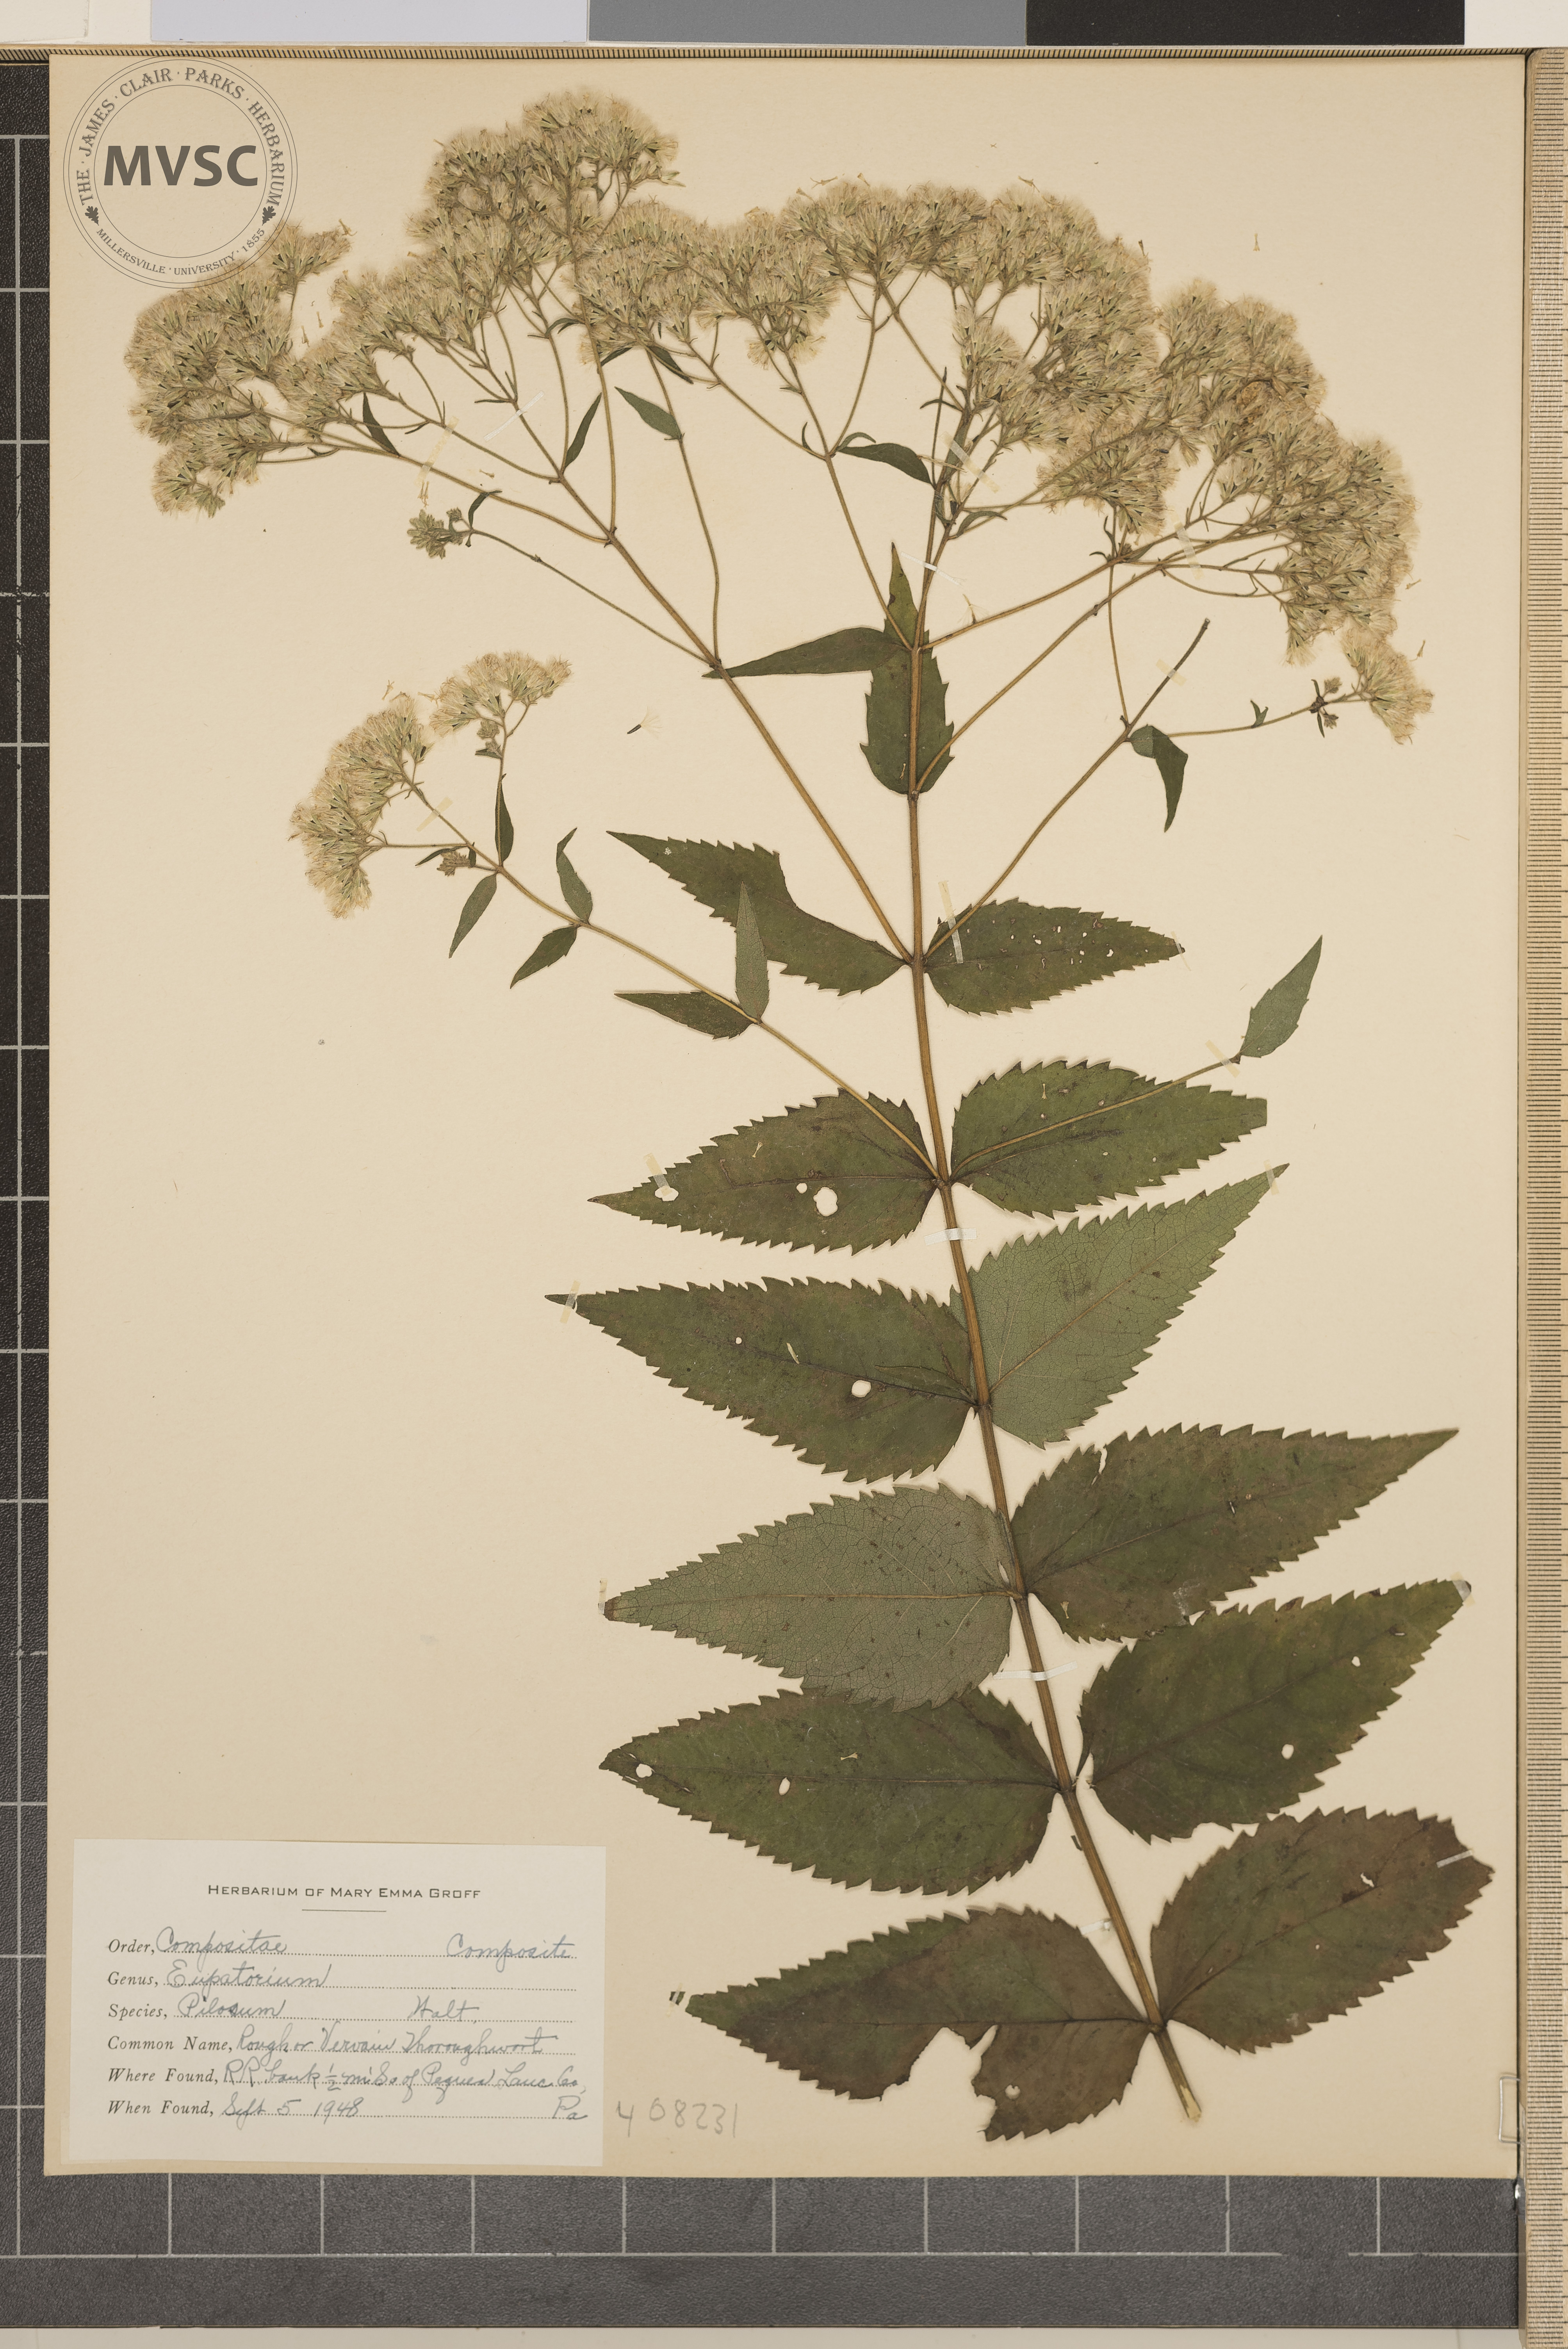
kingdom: Plantae
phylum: Tracheophyta
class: Magnoliopsida
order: Asterales
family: Asteraceae
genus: Eupatorium
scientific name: Eupatorium pilosum
